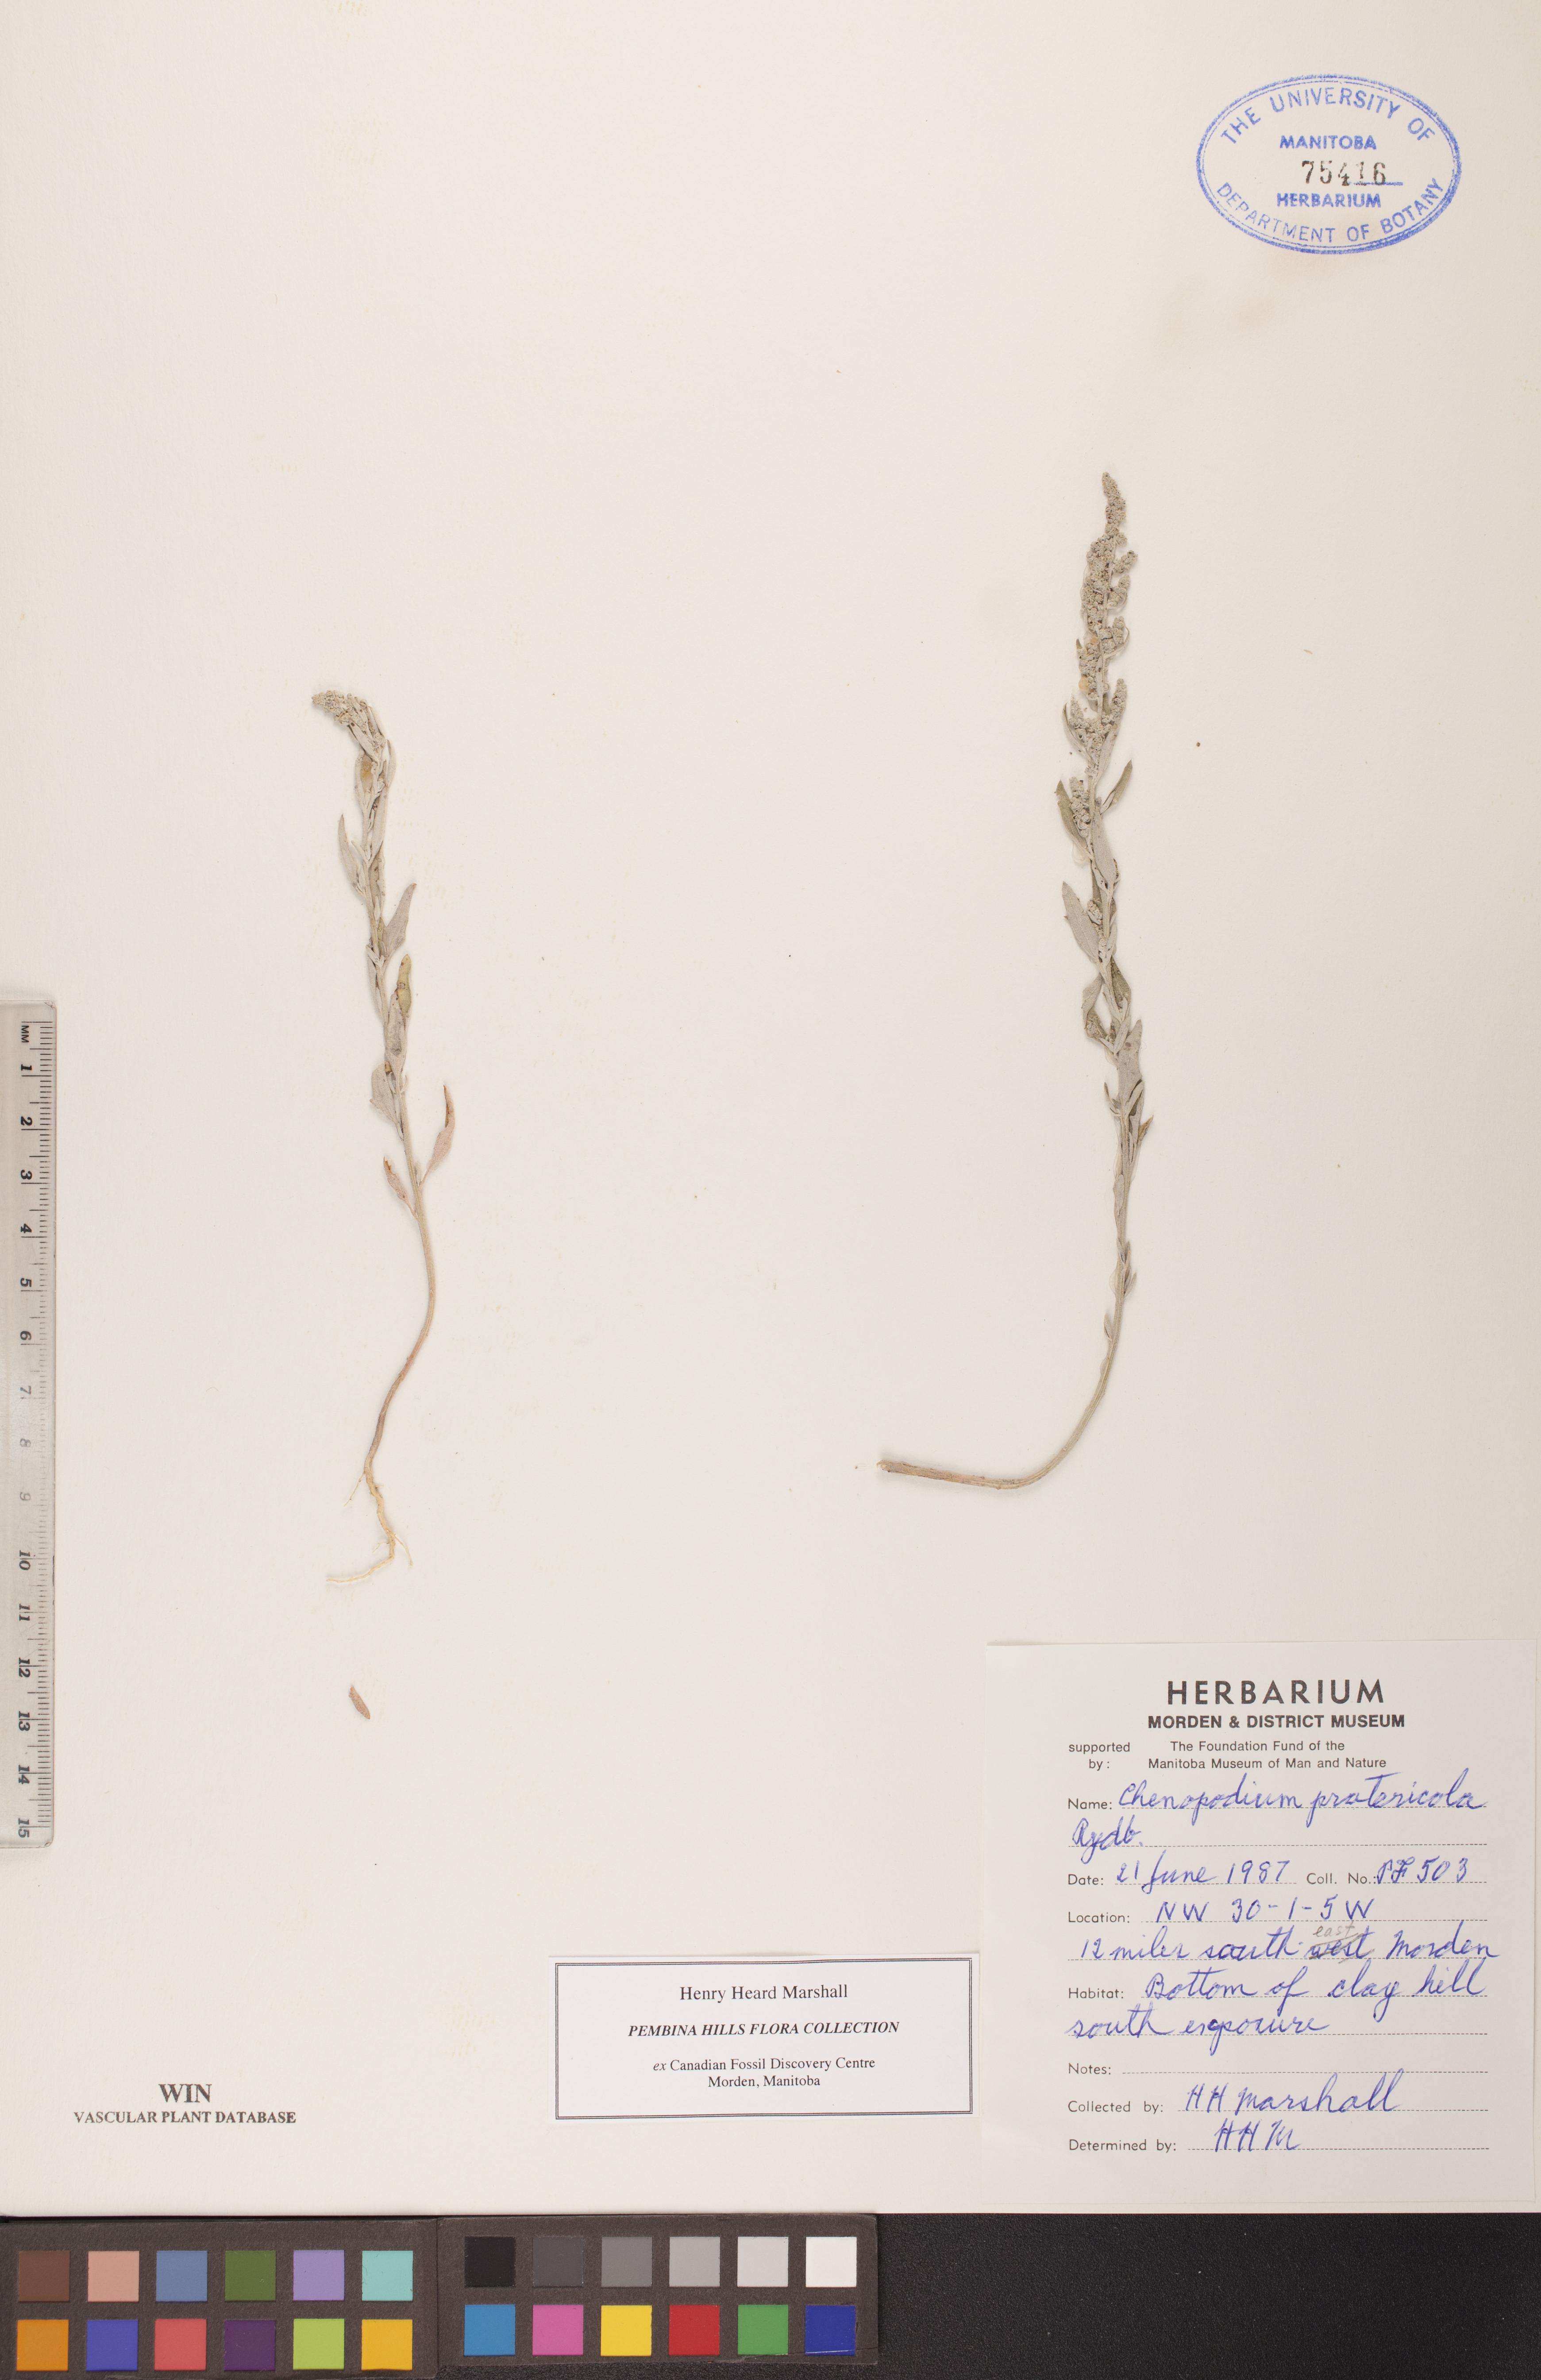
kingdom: Plantae
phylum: Tracheophyta
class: Magnoliopsida
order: Caryophyllales
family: Amaranthaceae
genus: Chenopodium
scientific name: Chenopodium pratericola
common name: Desert goosefoot
